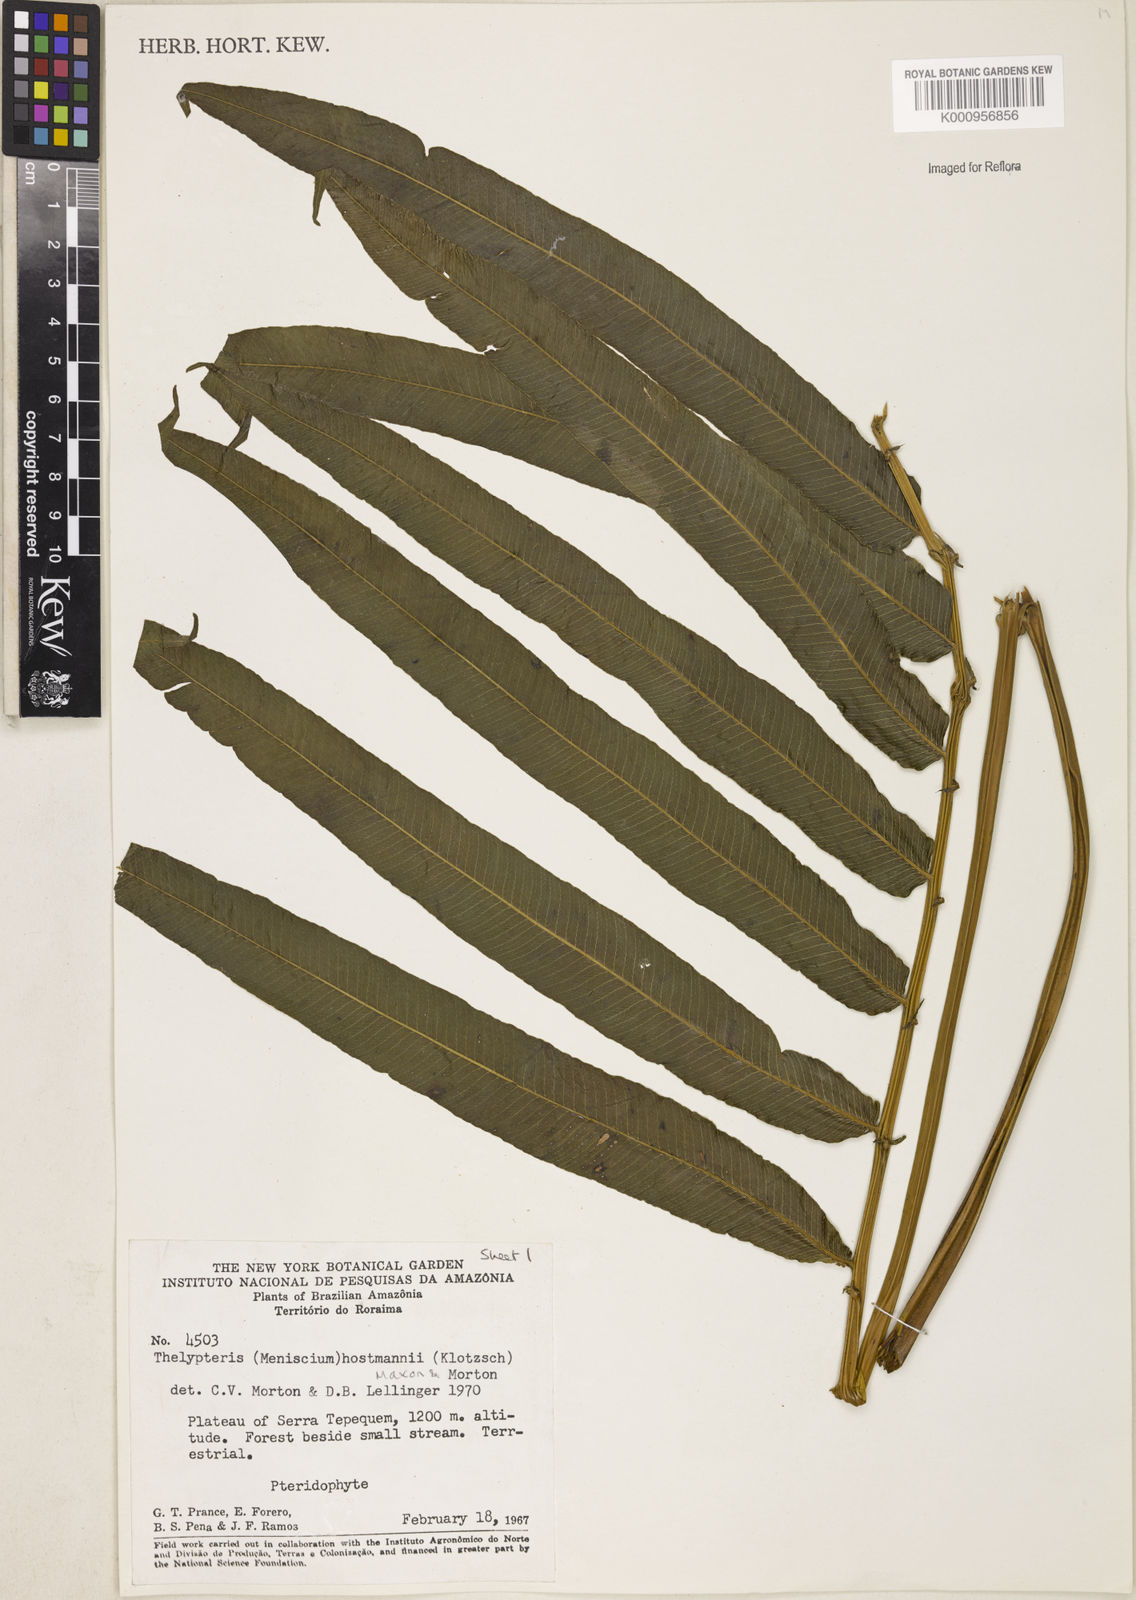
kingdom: Plantae
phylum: Tracheophyta
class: Polypodiopsida
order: Polypodiales
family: Thelypteridaceae
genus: Meniscium
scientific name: Meniscium arborescens
